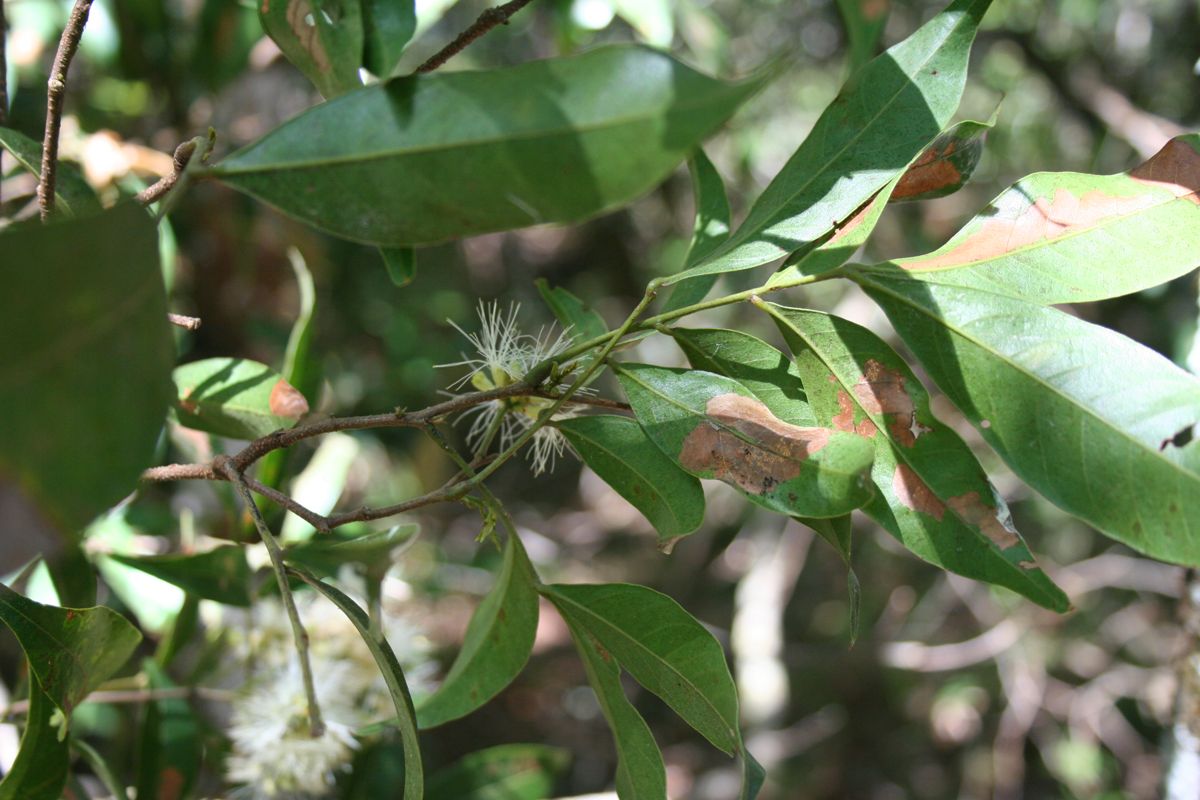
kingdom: Plantae
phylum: Tracheophyta
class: Magnoliopsida
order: Fabales
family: Fabaceae
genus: Inga
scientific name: Inga punctata
